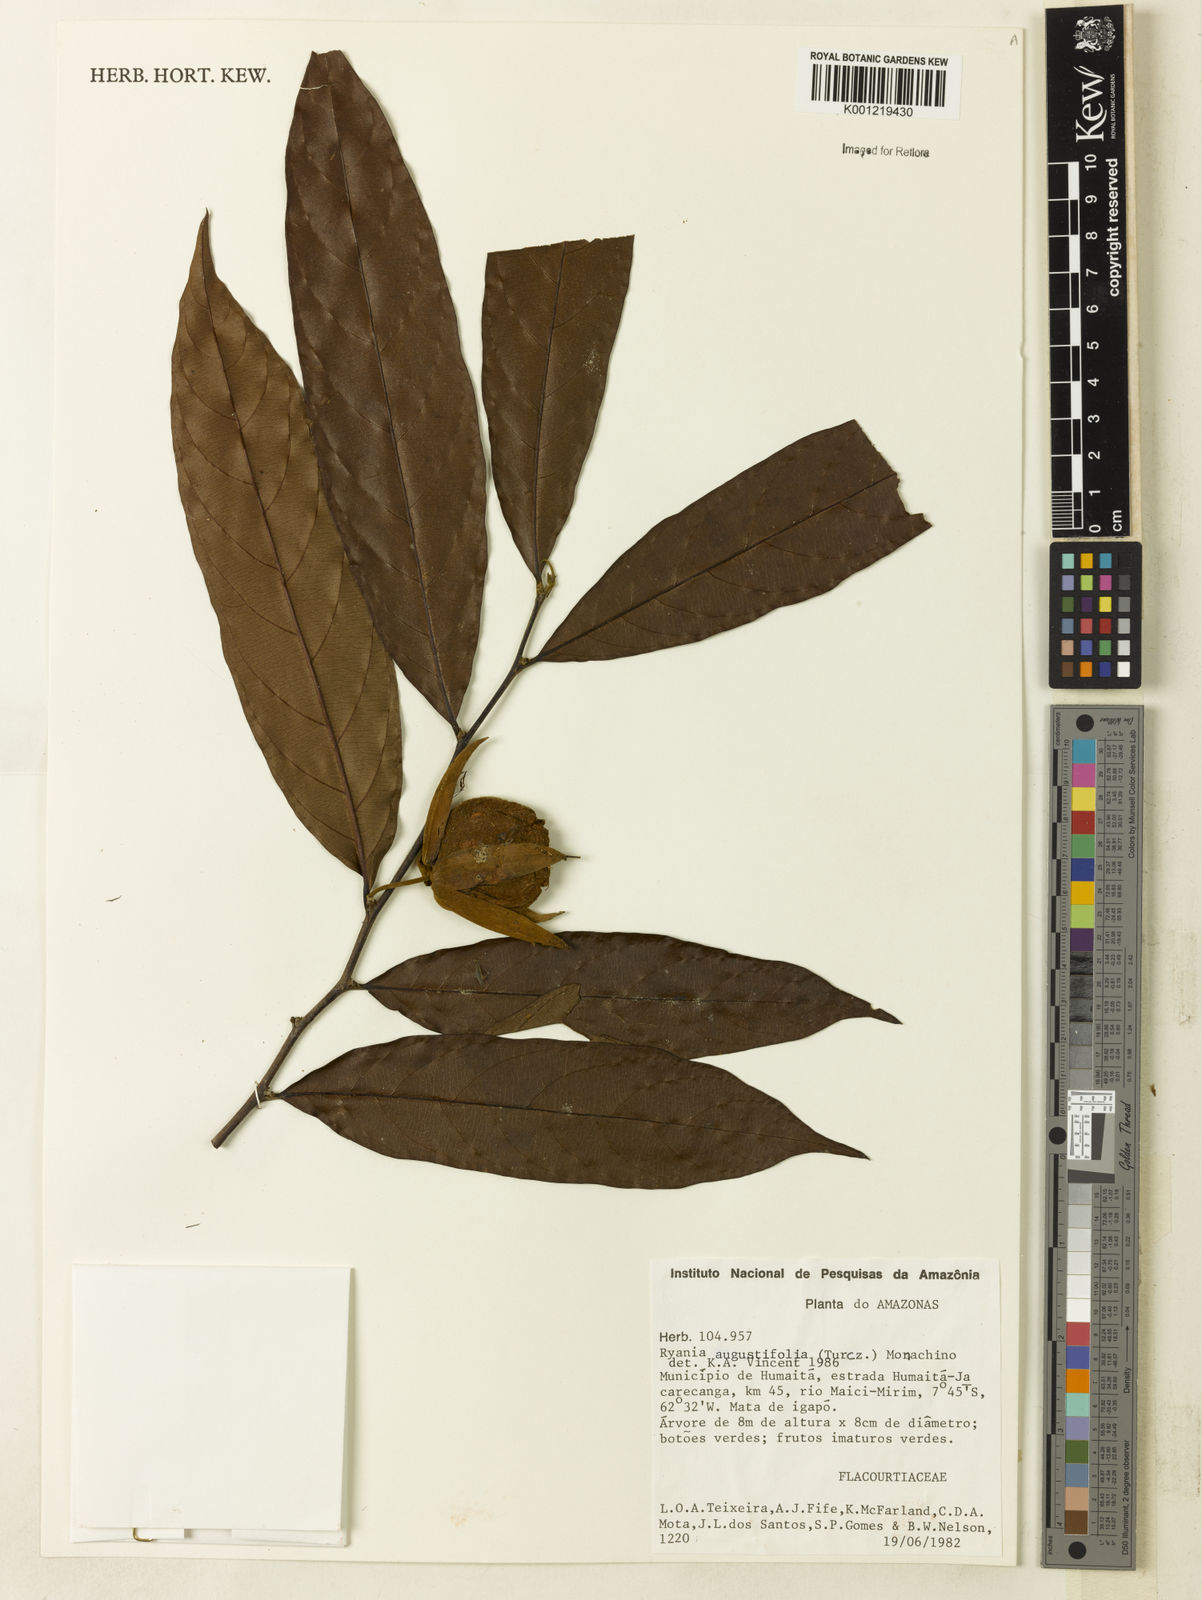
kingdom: Plantae
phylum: Tracheophyta
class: Magnoliopsida
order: Malpighiales
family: Salicaceae
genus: Ryania
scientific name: Ryania angustifolia
